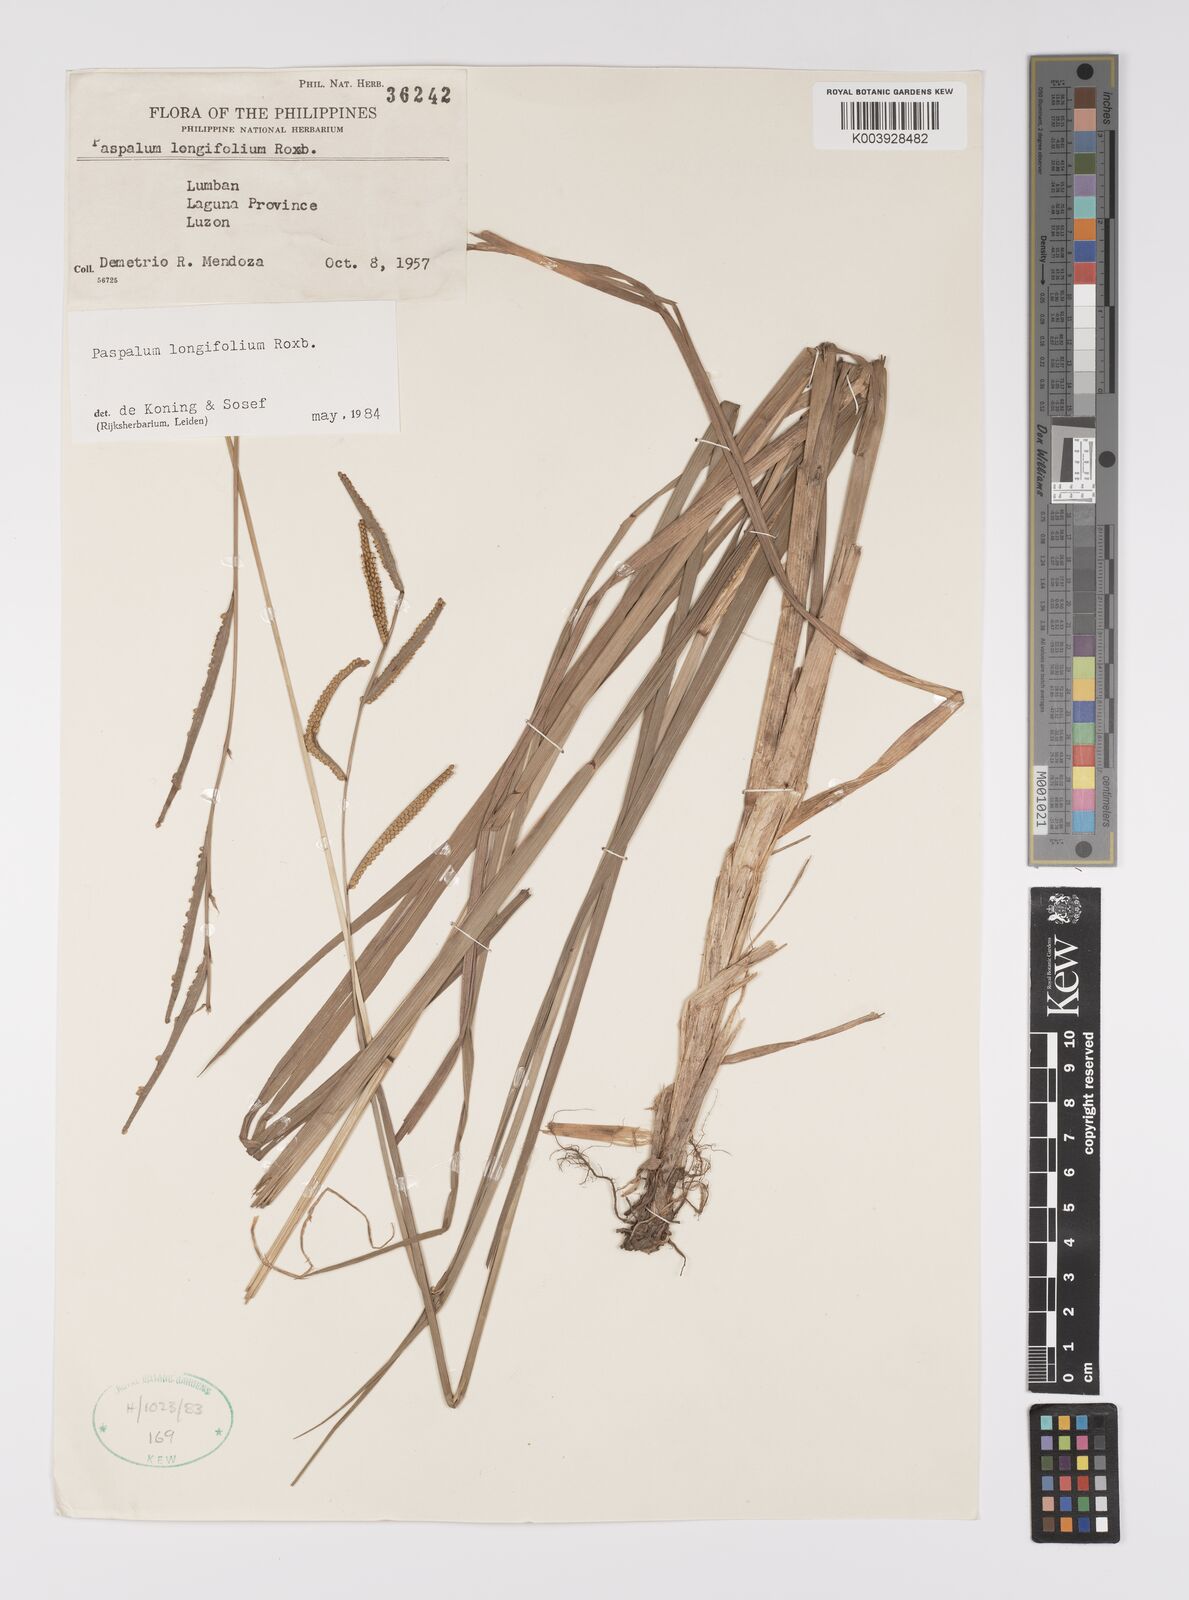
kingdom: Plantae
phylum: Tracheophyta
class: Liliopsida
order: Poales
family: Poaceae
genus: Paspalum
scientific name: Paspalum sumatrense
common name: Long-leaved paspalum
